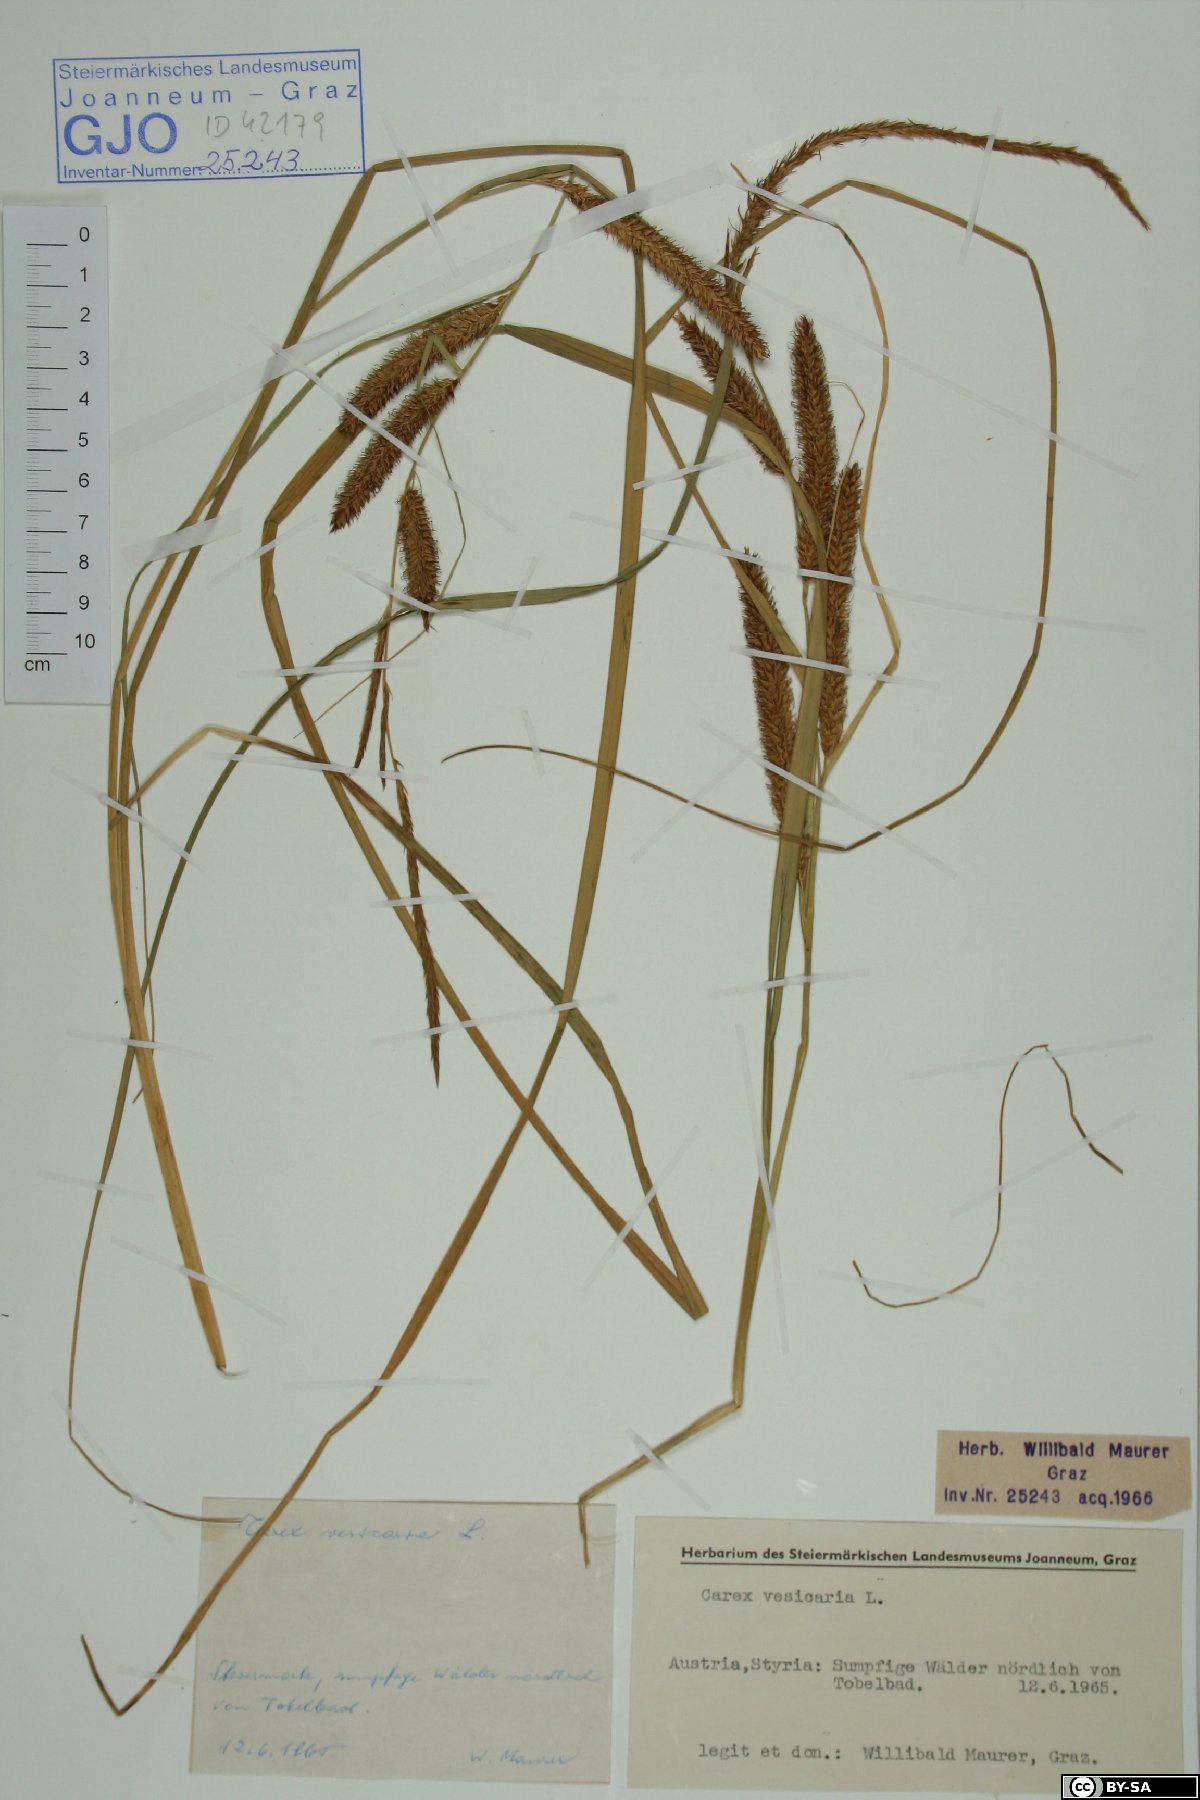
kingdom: Plantae
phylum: Tracheophyta
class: Liliopsida
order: Poales
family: Cyperaceae
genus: Carex
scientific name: Carex vesicaria
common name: Bladder-sedge
